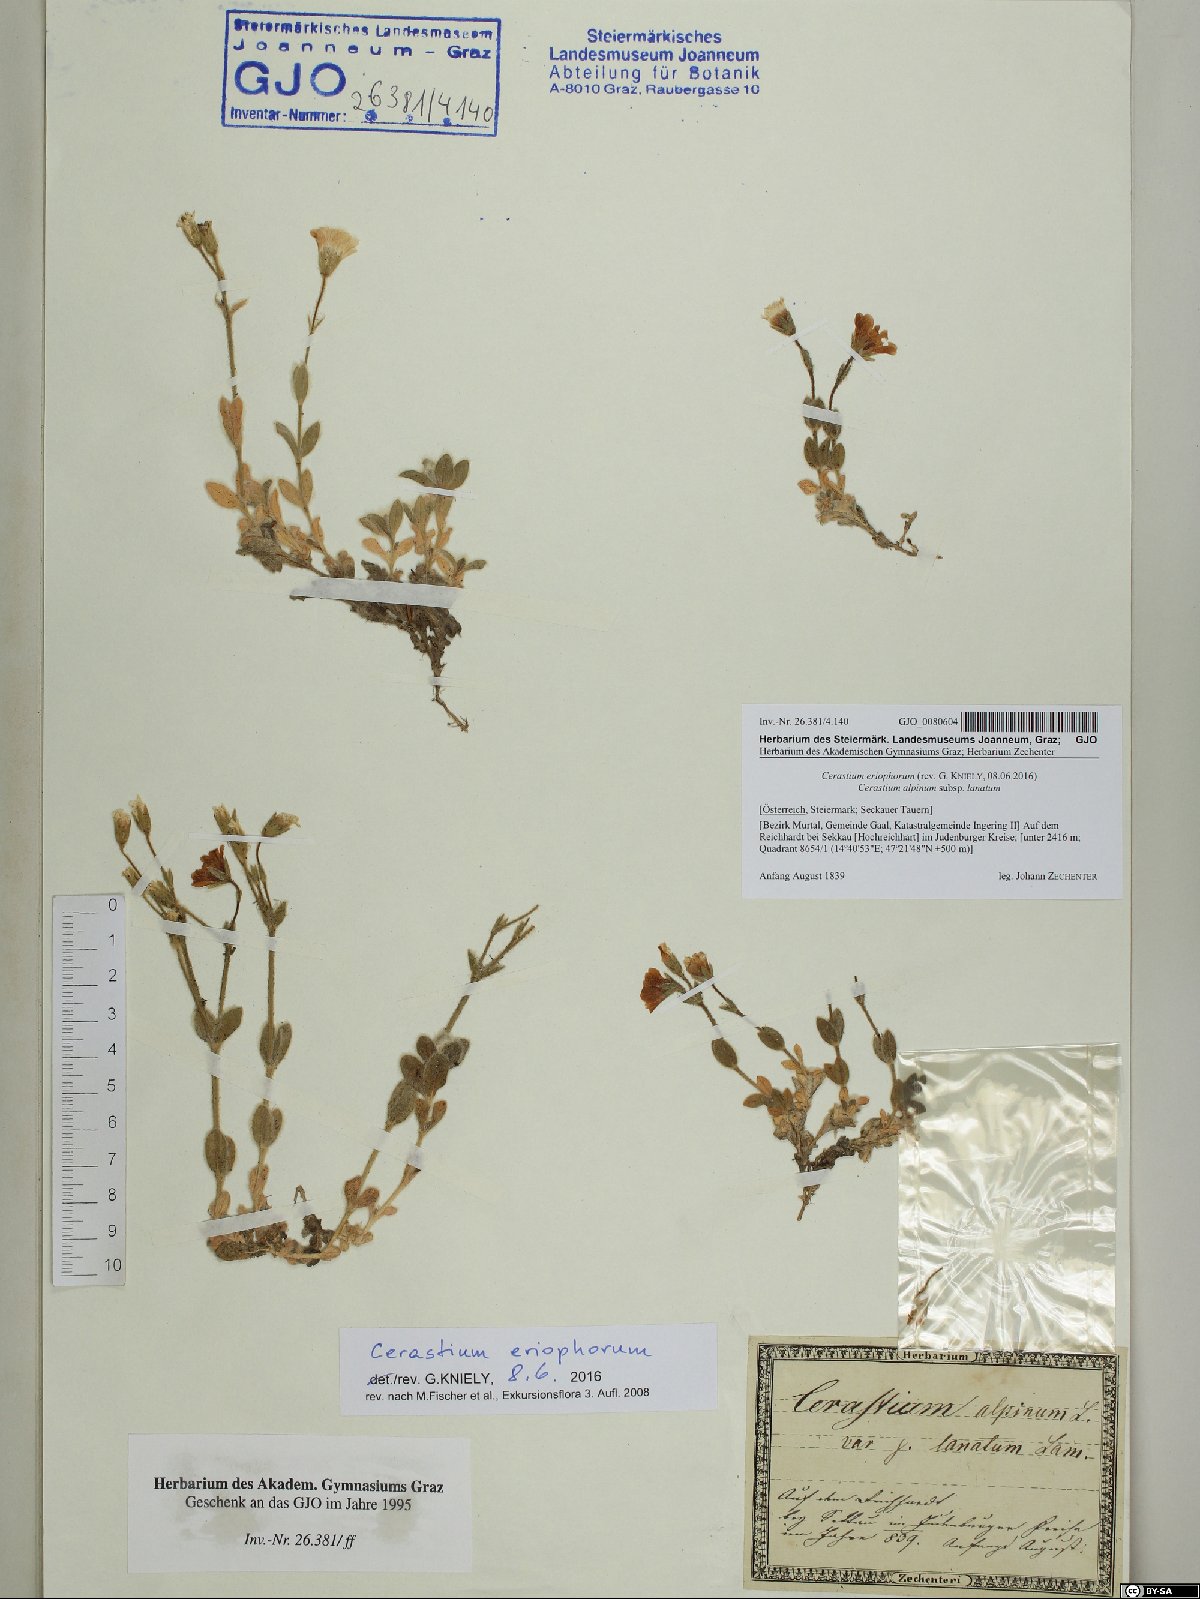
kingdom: Plantae
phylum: Tracheophyta
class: Magnoliopsida
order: Caryophyllales
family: Caryophyllaceae
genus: Cerastium
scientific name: Cerastium eriophorum
